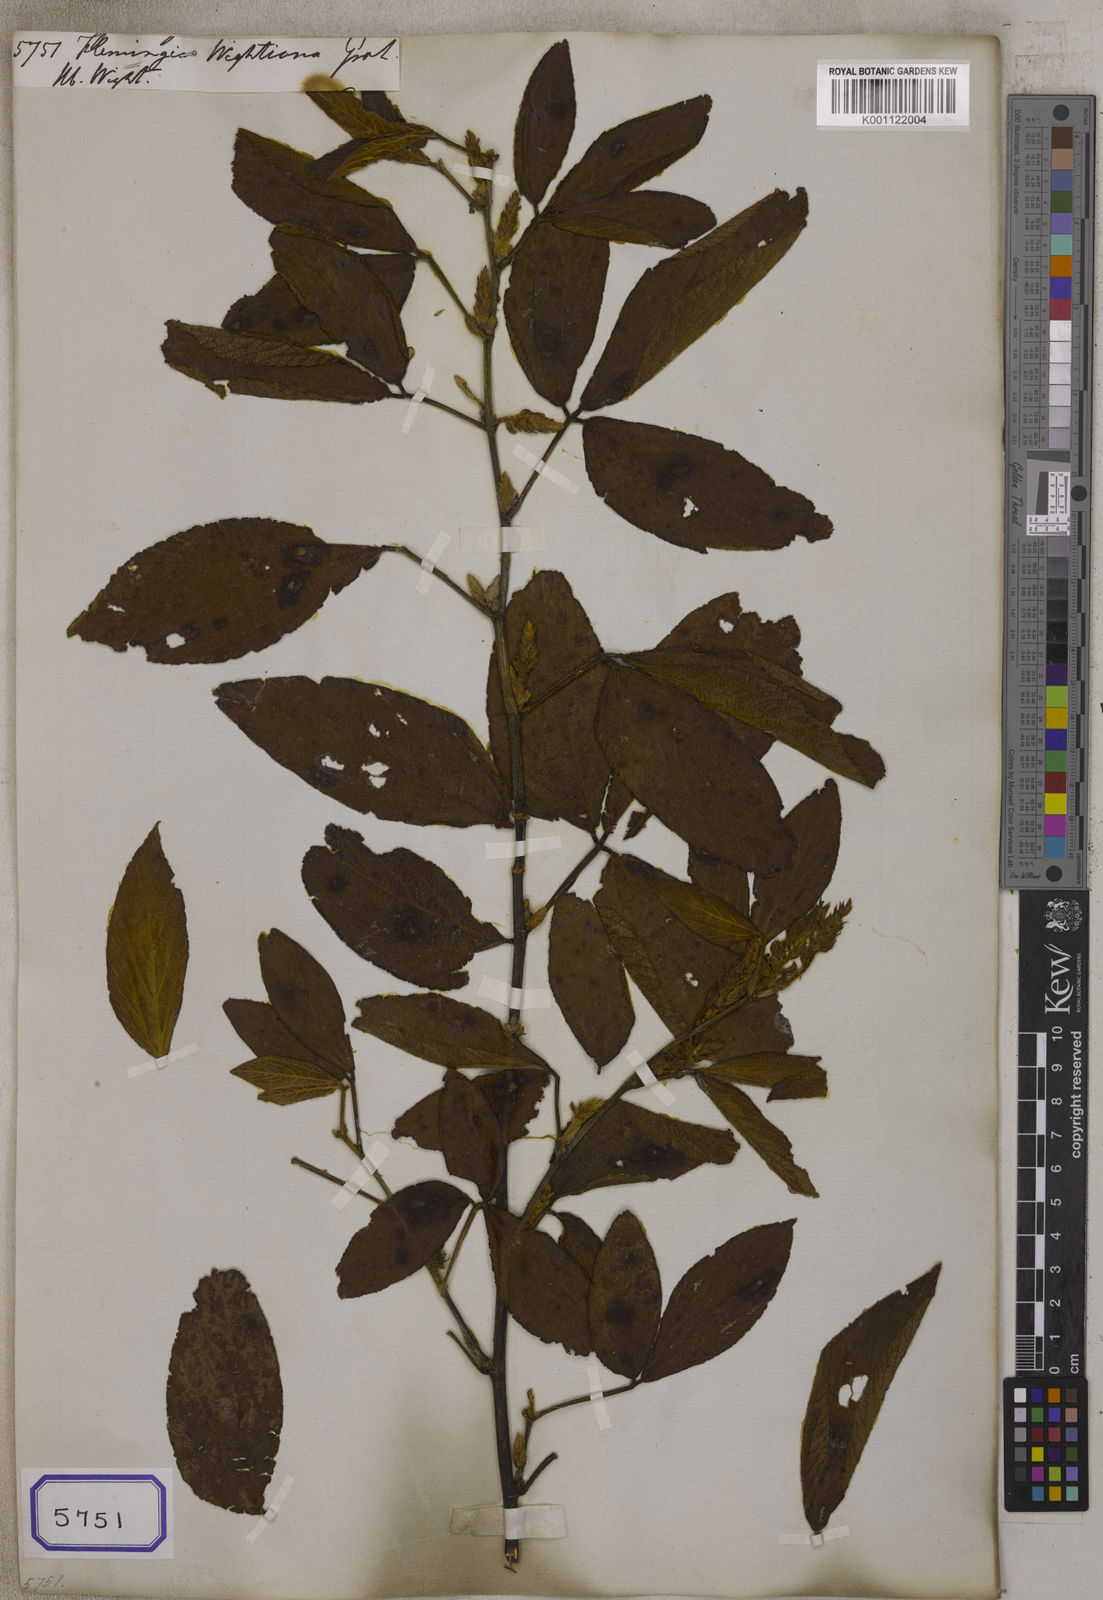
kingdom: Plantae
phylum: Tracheophyta
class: Magnoliopsida
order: Fabales
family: Fabaceae
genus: Flemingia
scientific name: Flemingia
